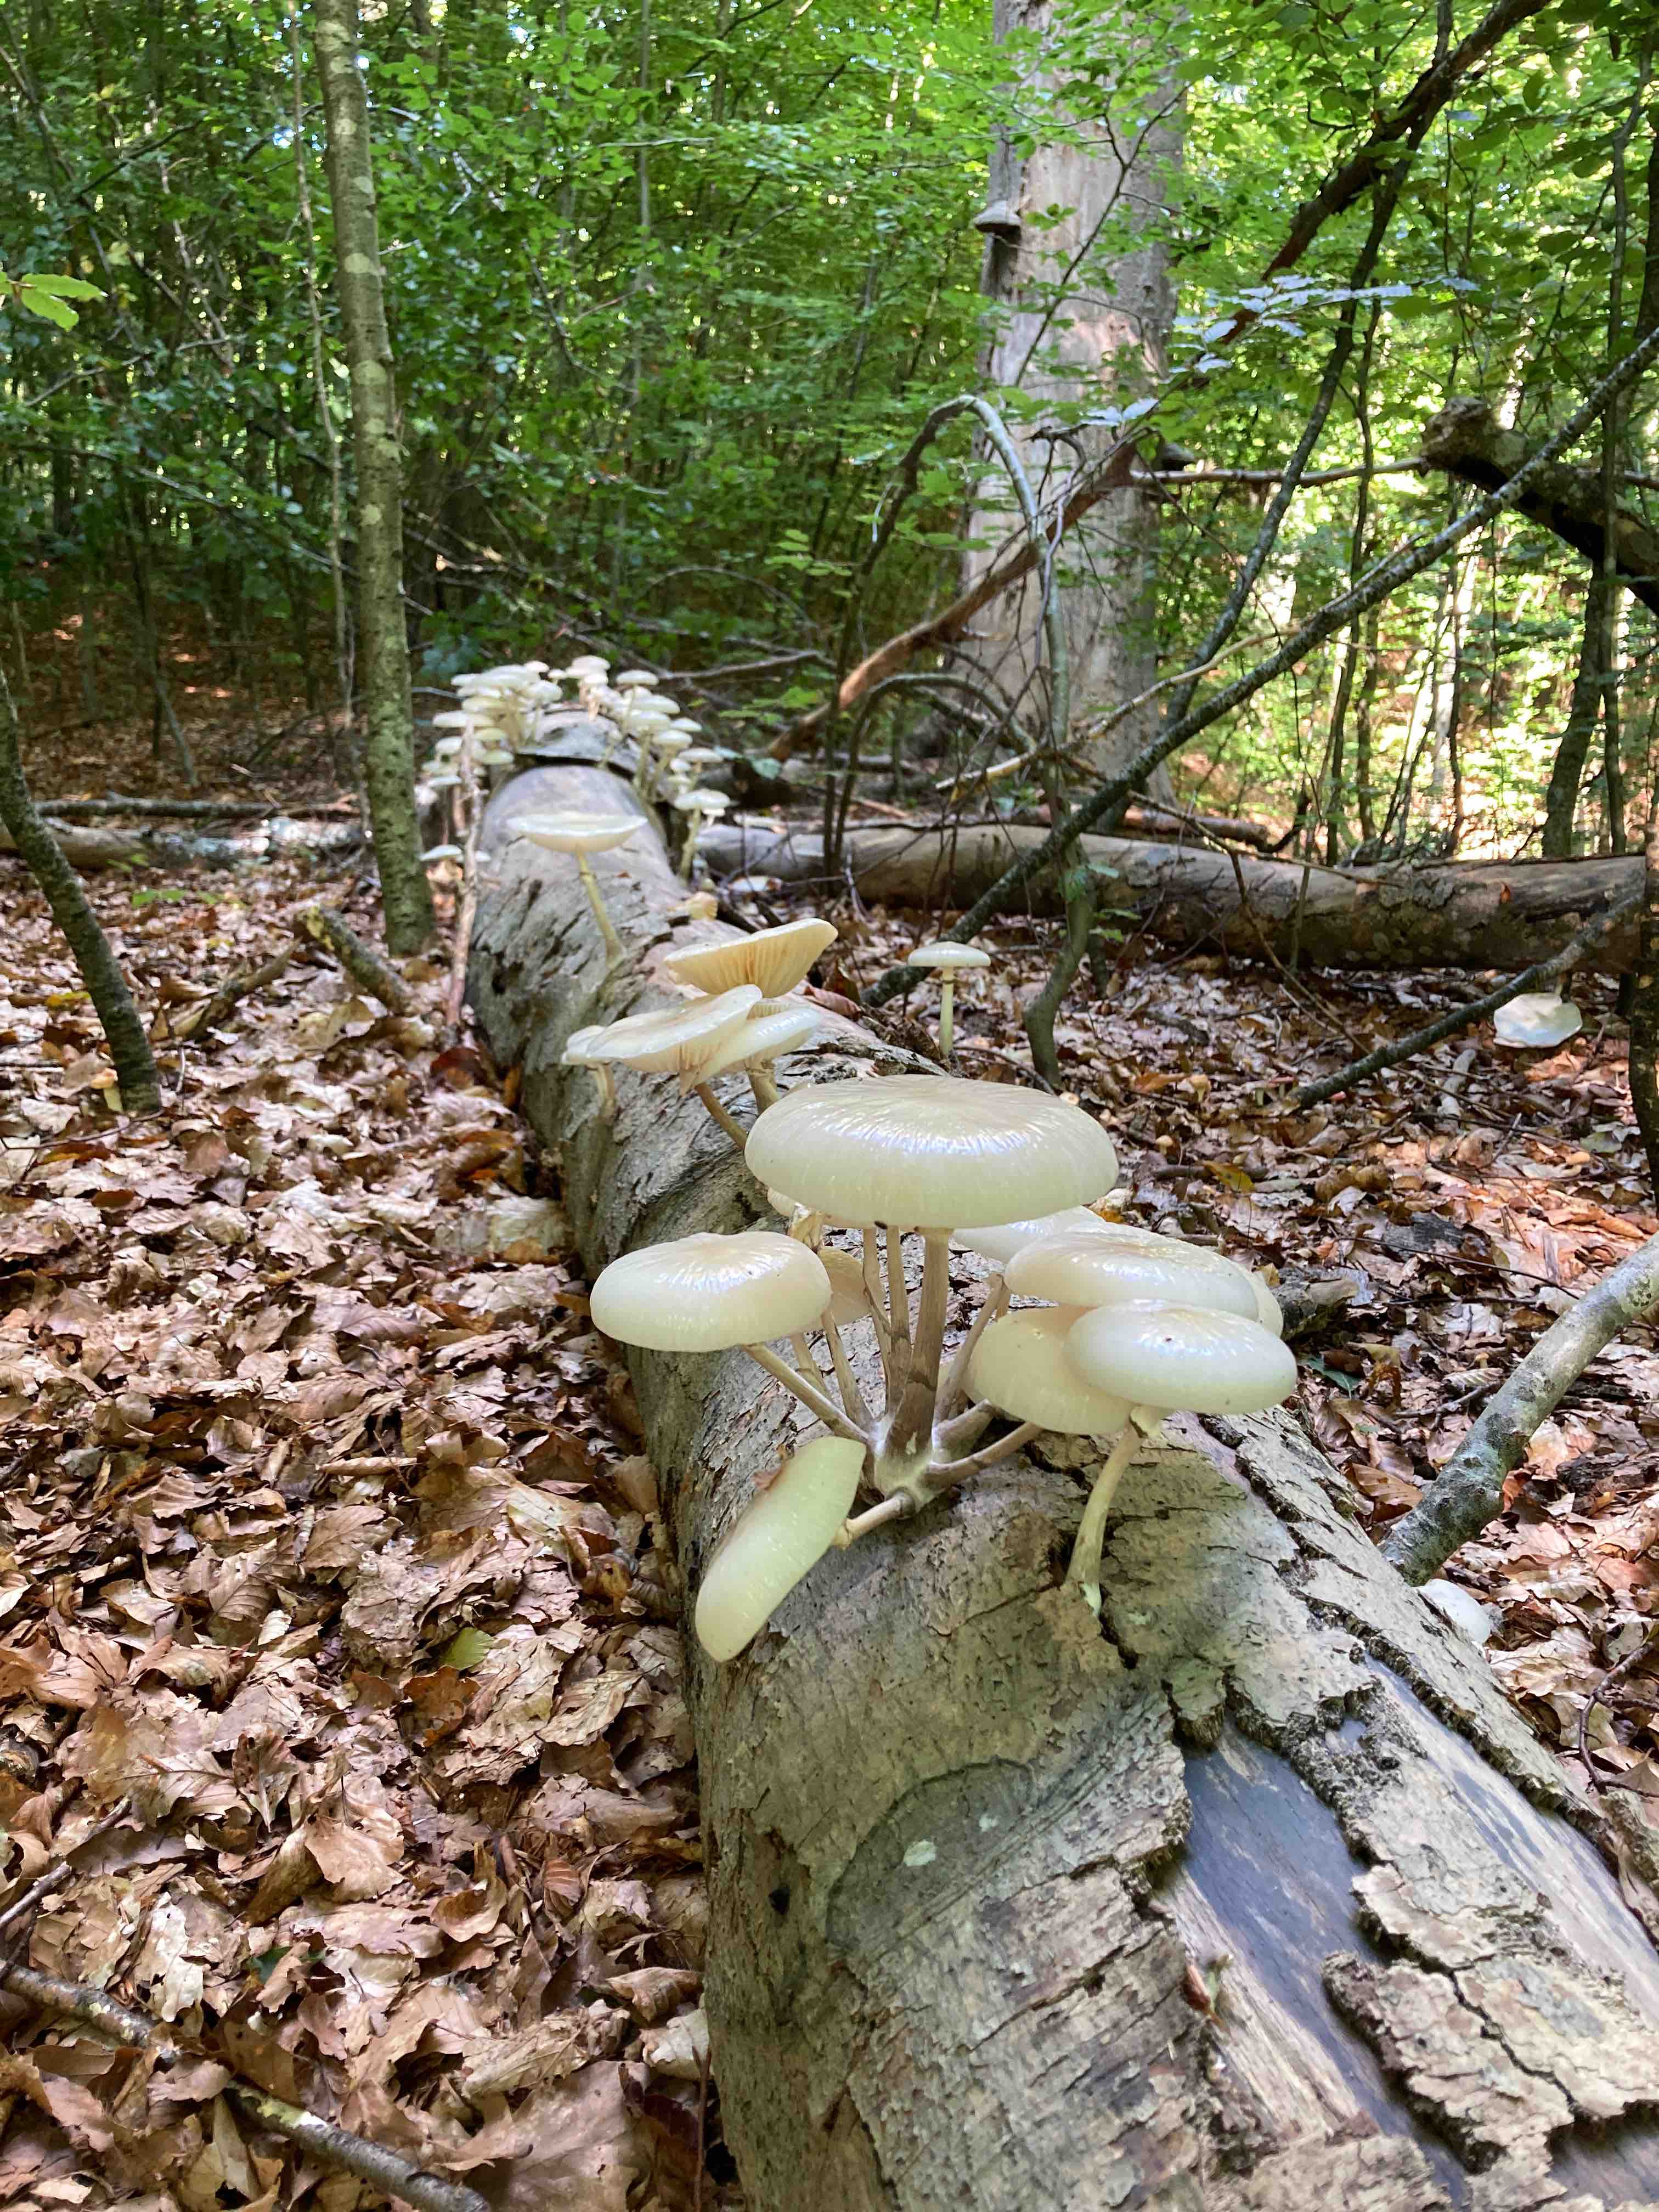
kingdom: Fungi
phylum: Basidiomycota
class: Agaricomycetes
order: Agaricales
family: Physalacriaceae
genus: Mucidula
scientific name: Mucidula mucida
